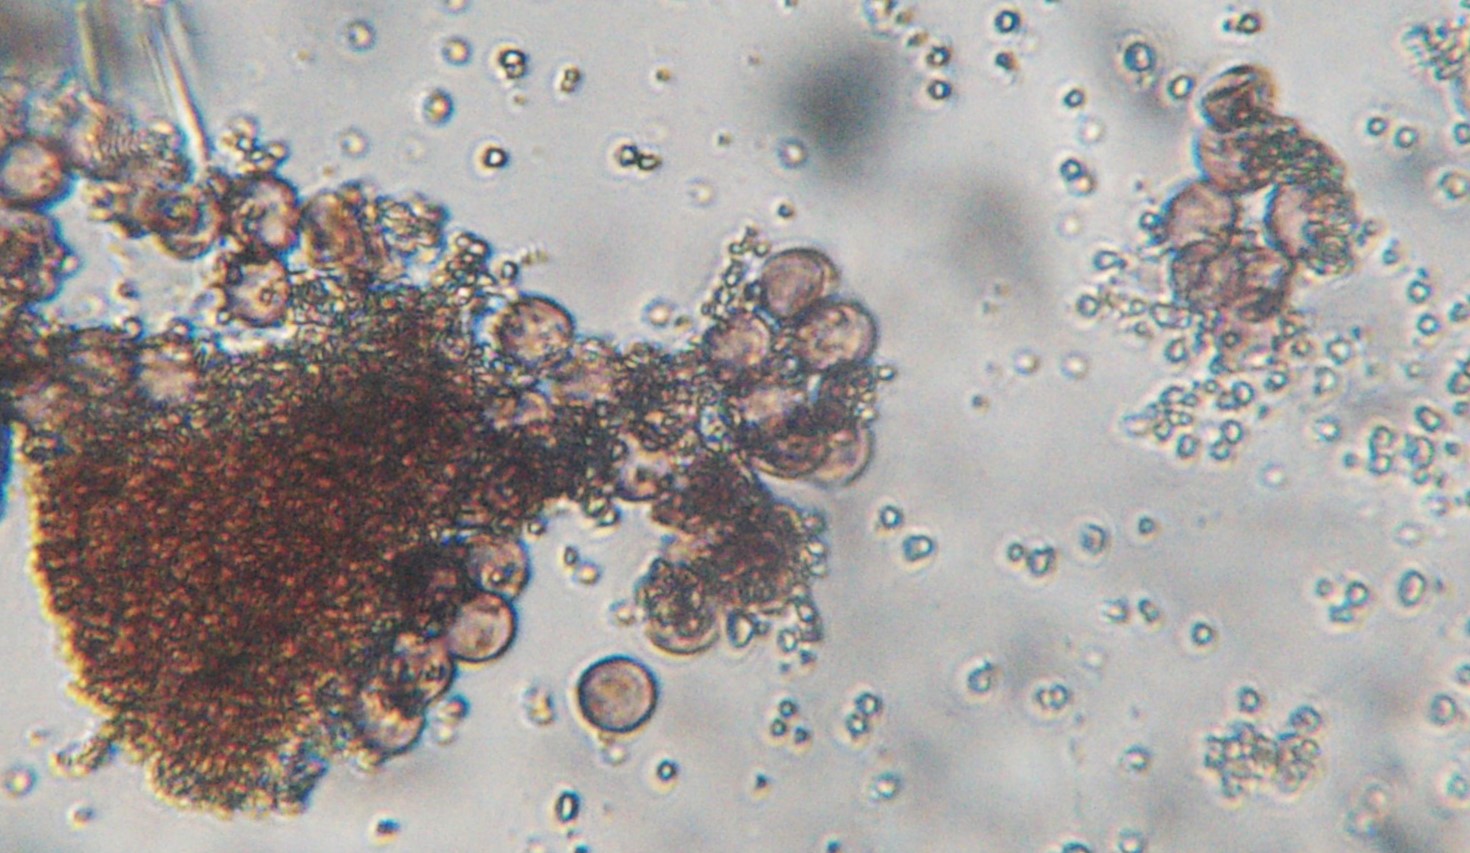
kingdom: Protozoa
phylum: Mycetozoa
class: Myxomycetes
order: Physarales
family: Didymiaceae
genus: Diderma
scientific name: Diderma
